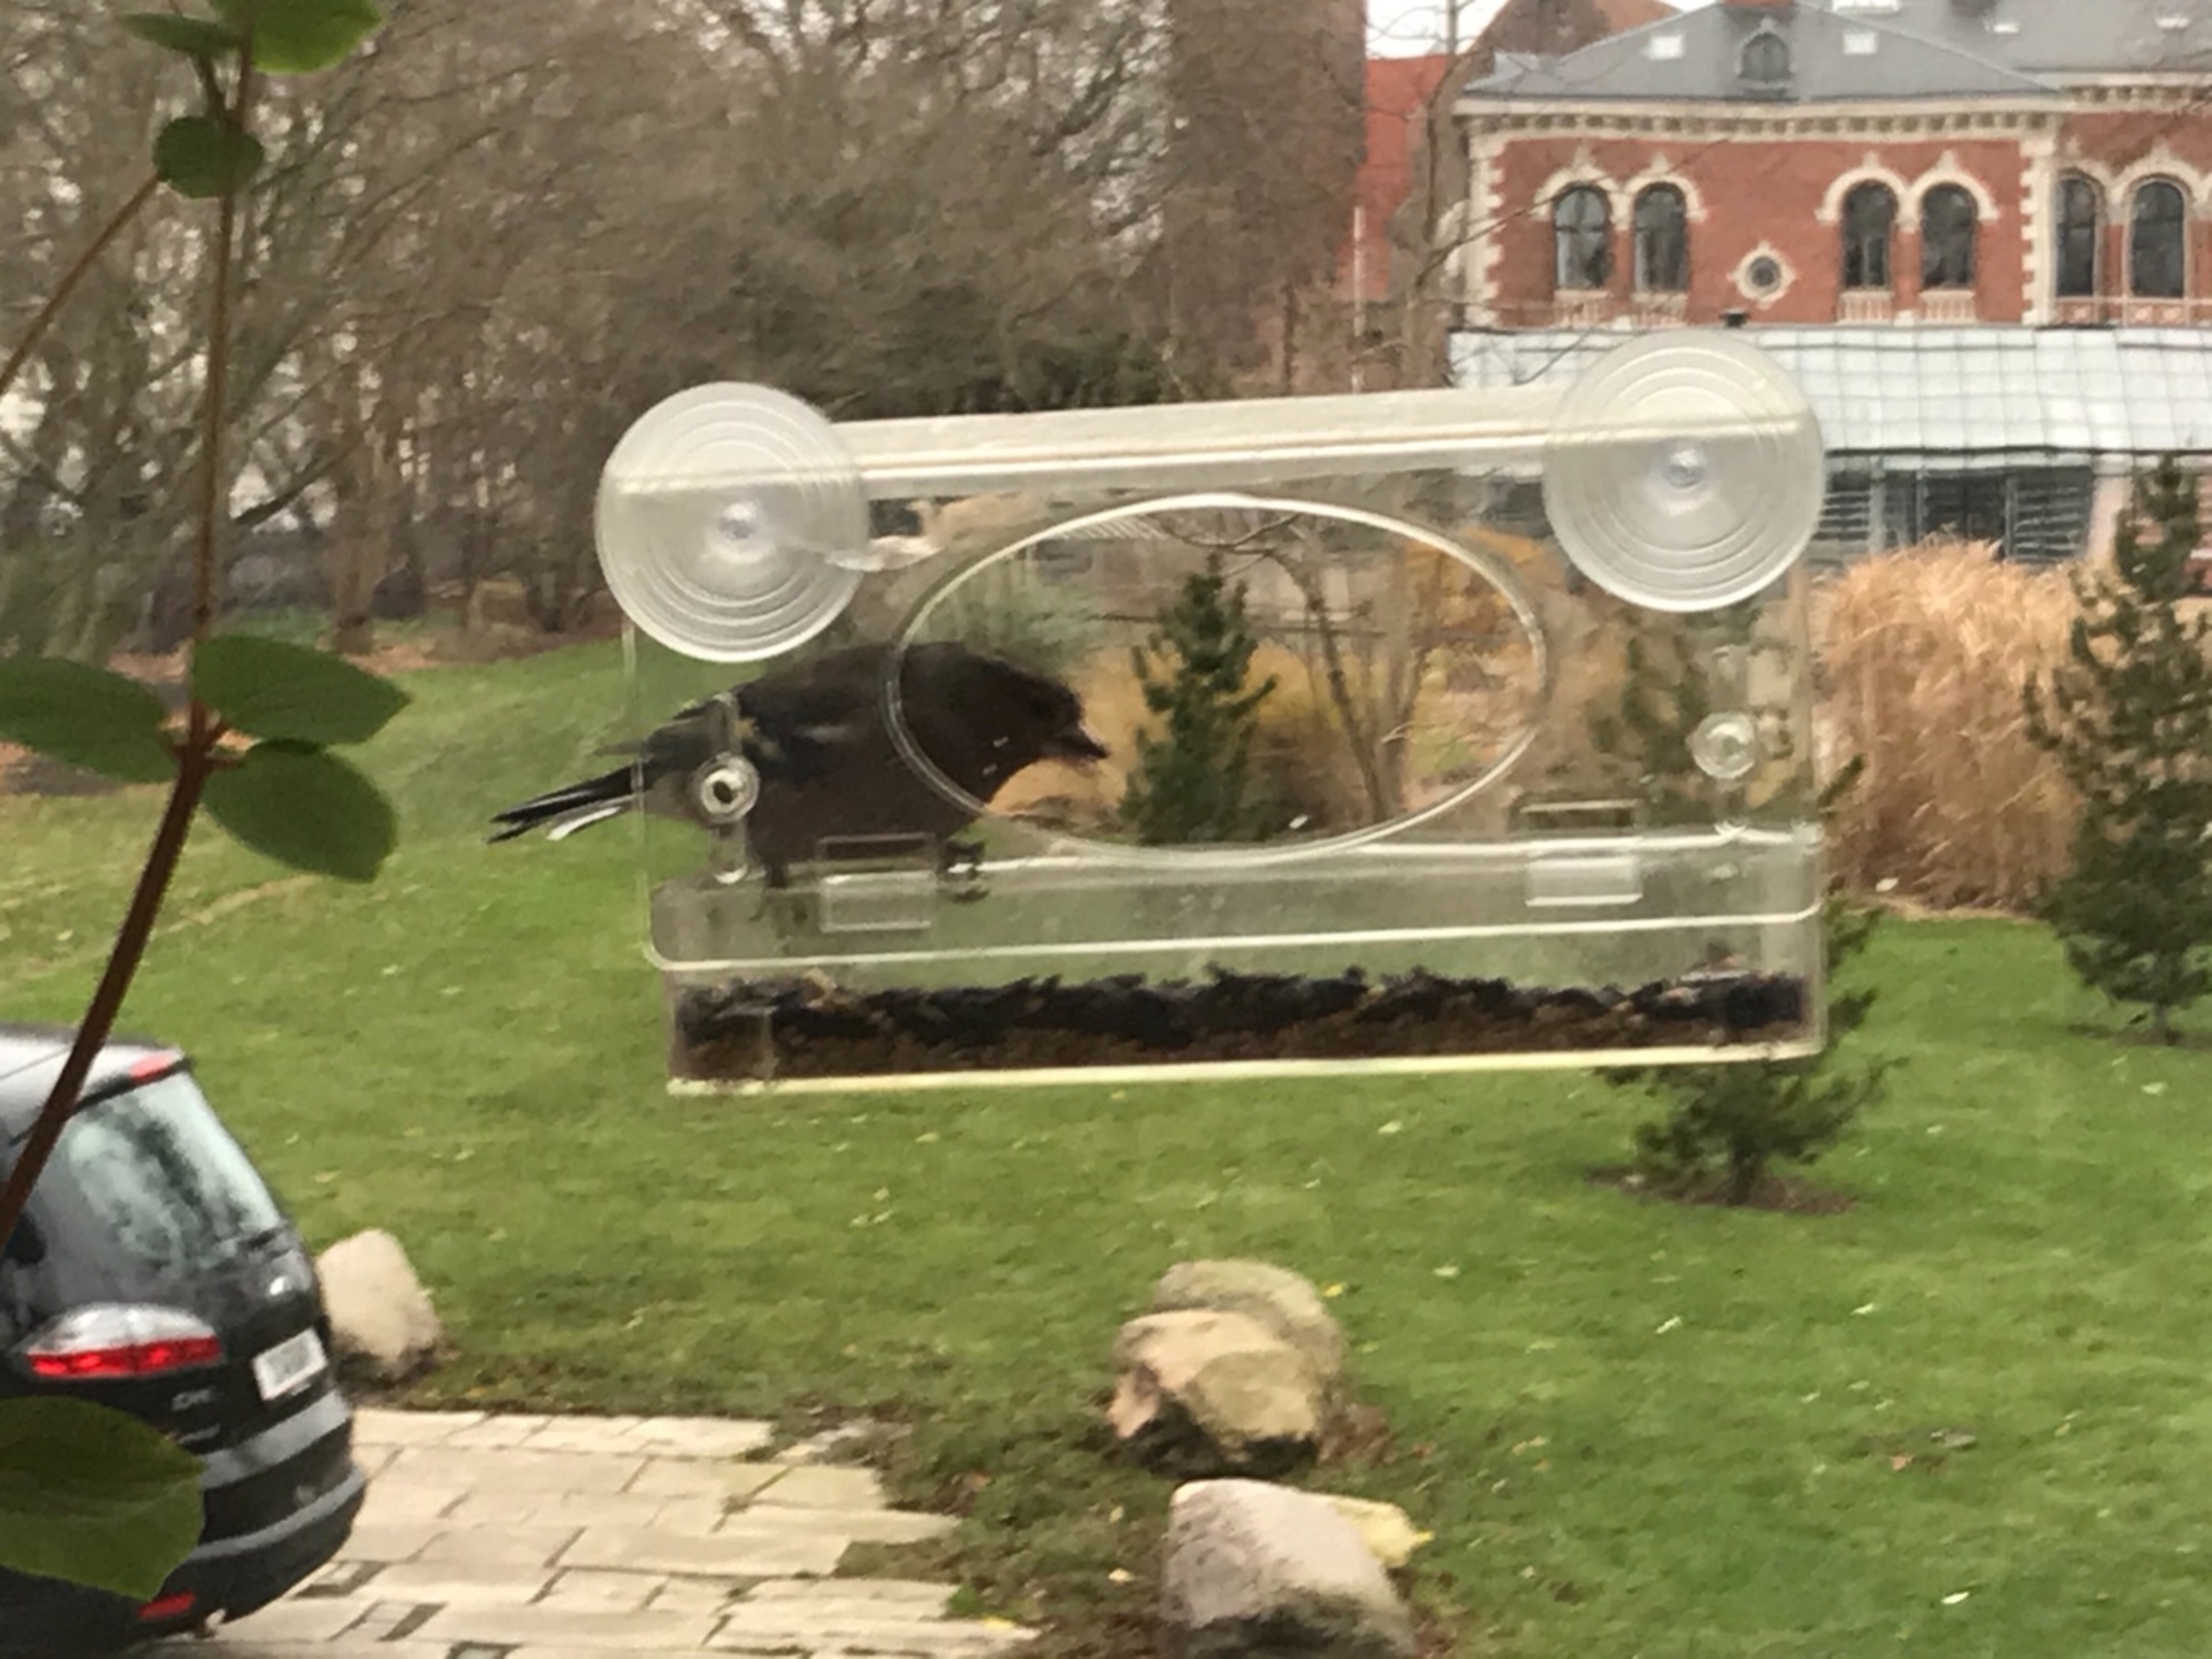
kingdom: Animalia
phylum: Chordata
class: Aves
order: Passeriformes
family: Fringillidae
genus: Fringilla
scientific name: Fringilla coelebs
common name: Bogfinke
